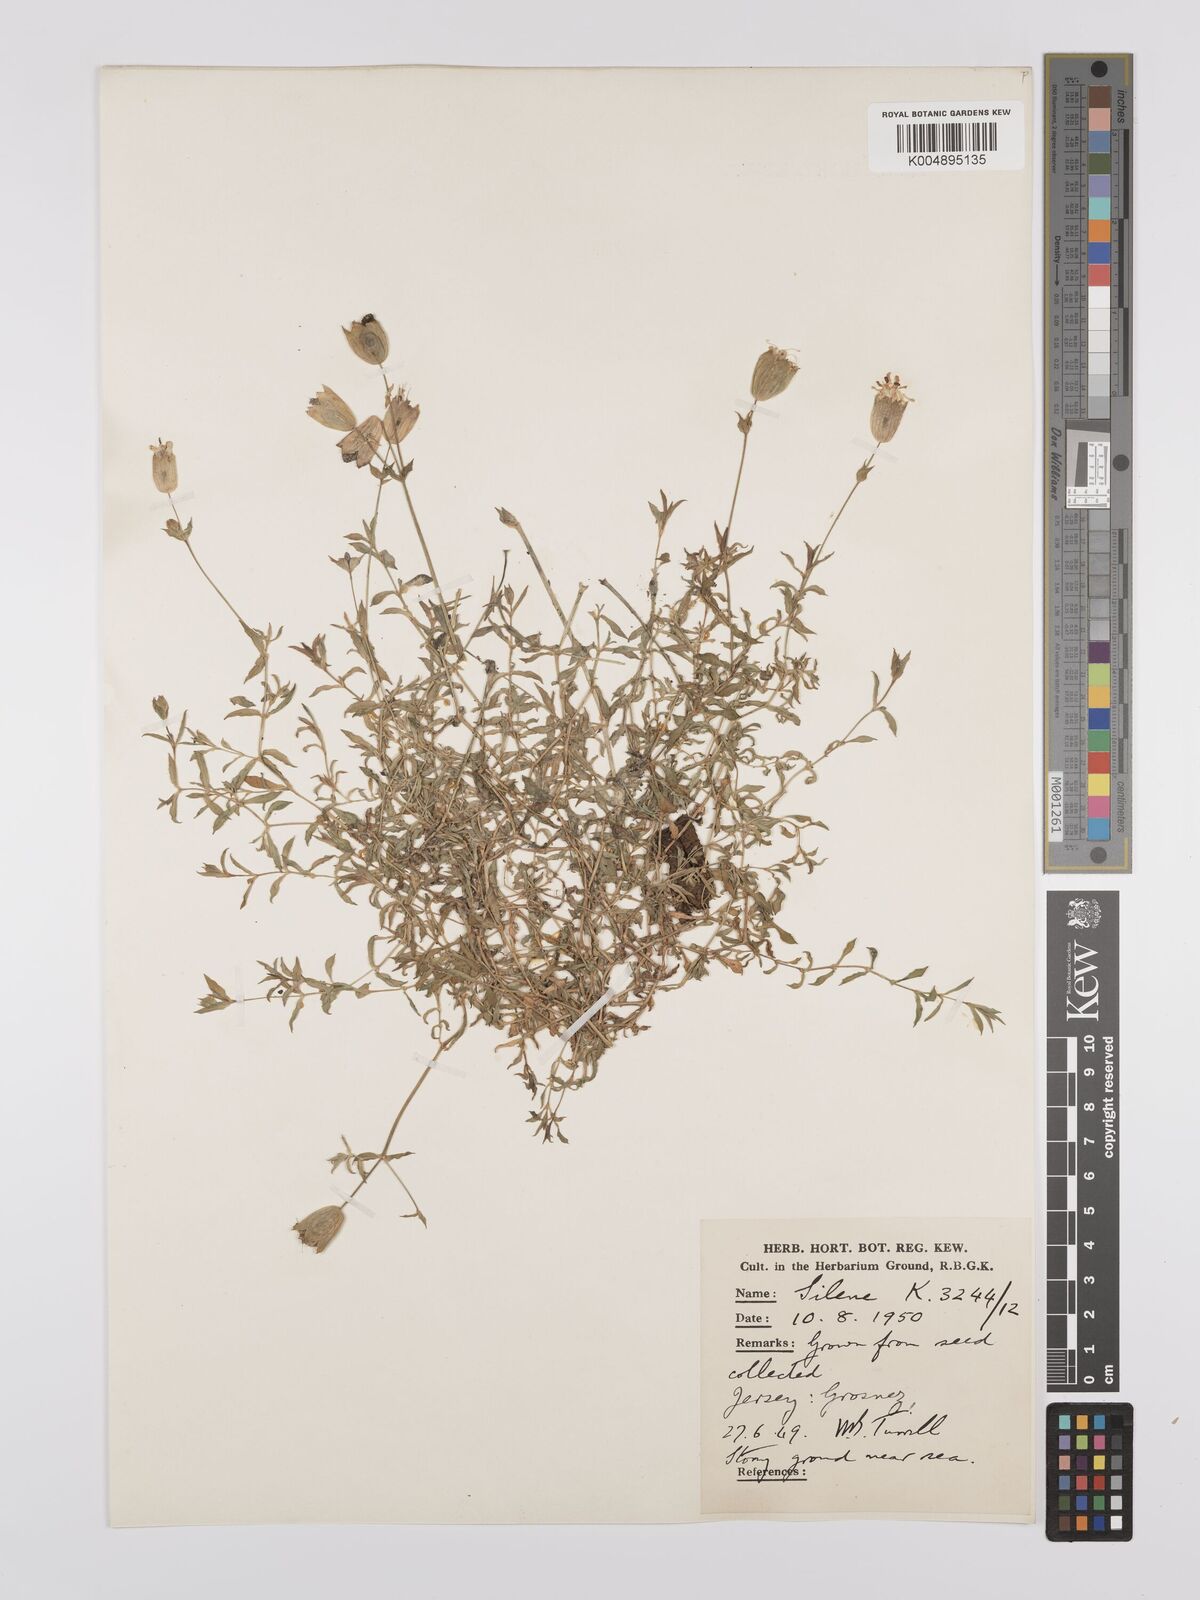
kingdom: Plantae
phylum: Tracheophyta
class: Magnoliopsida
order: Caryophyllales
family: Caryophyllaceae
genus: Silene
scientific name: Silene uniflora
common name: Sea campion
